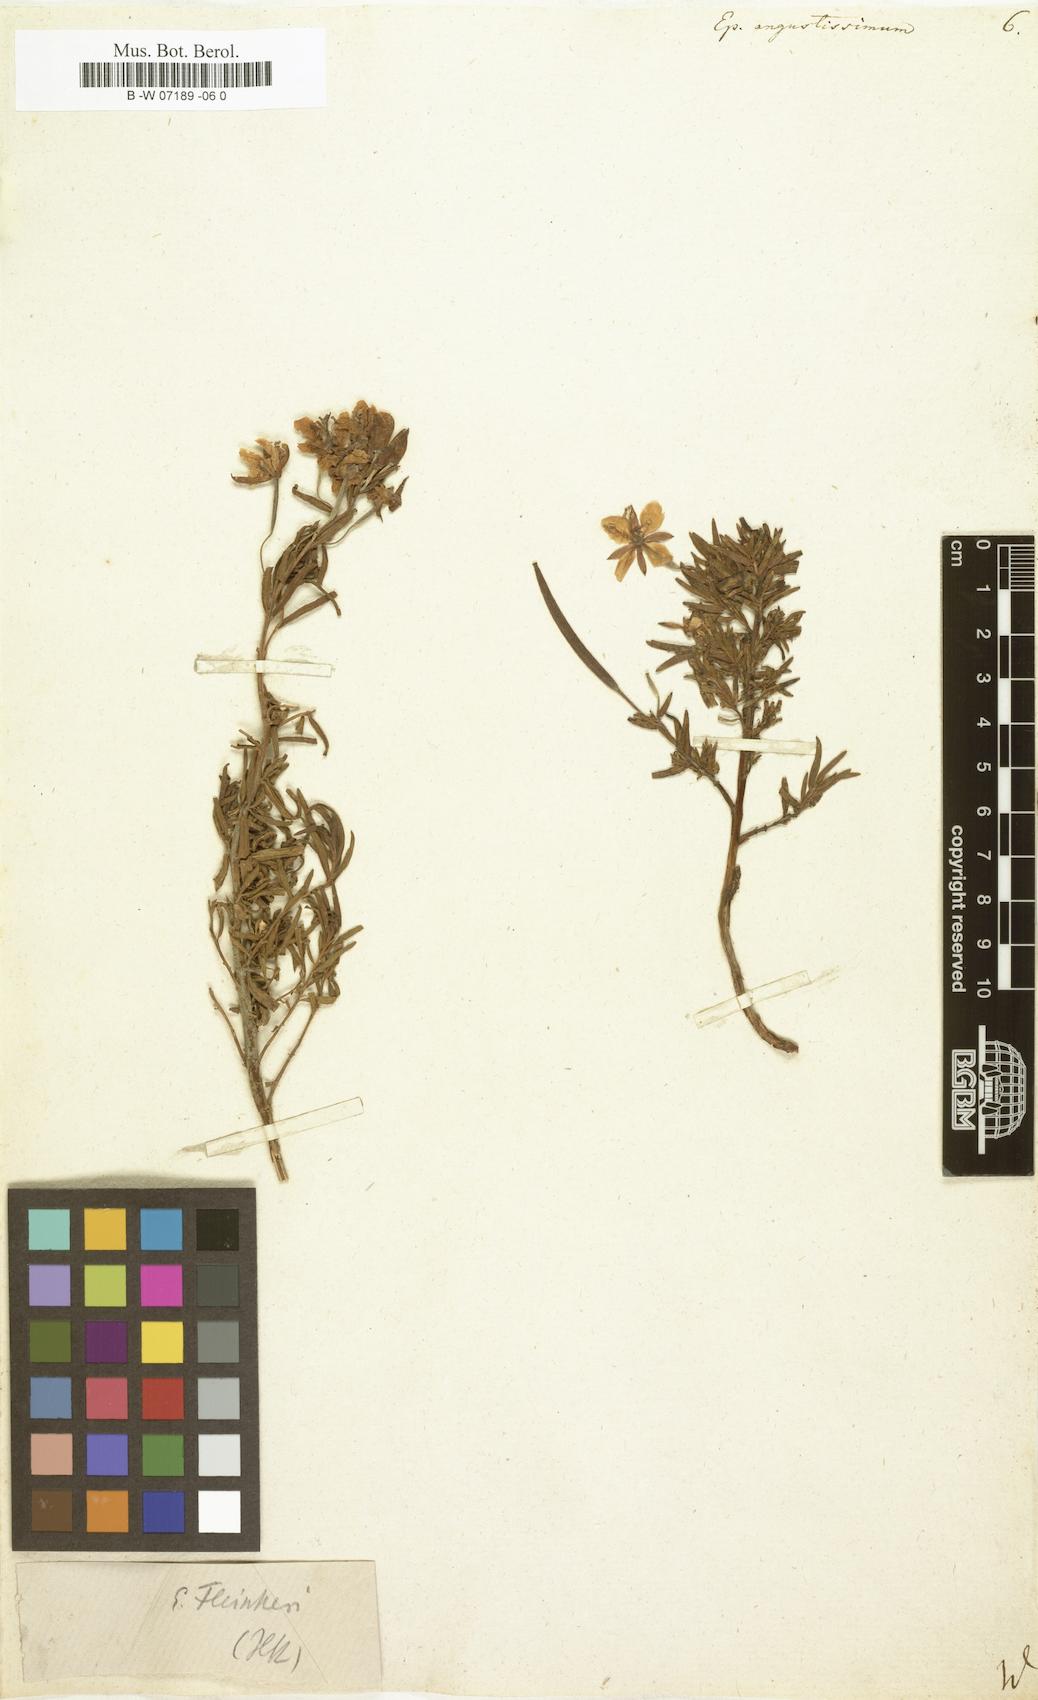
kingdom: Plantae
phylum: Tracheophyta
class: Magnoliopsida
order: Myrtales
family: Onagraceae
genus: Chamaenerion
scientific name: Chamaenerion
